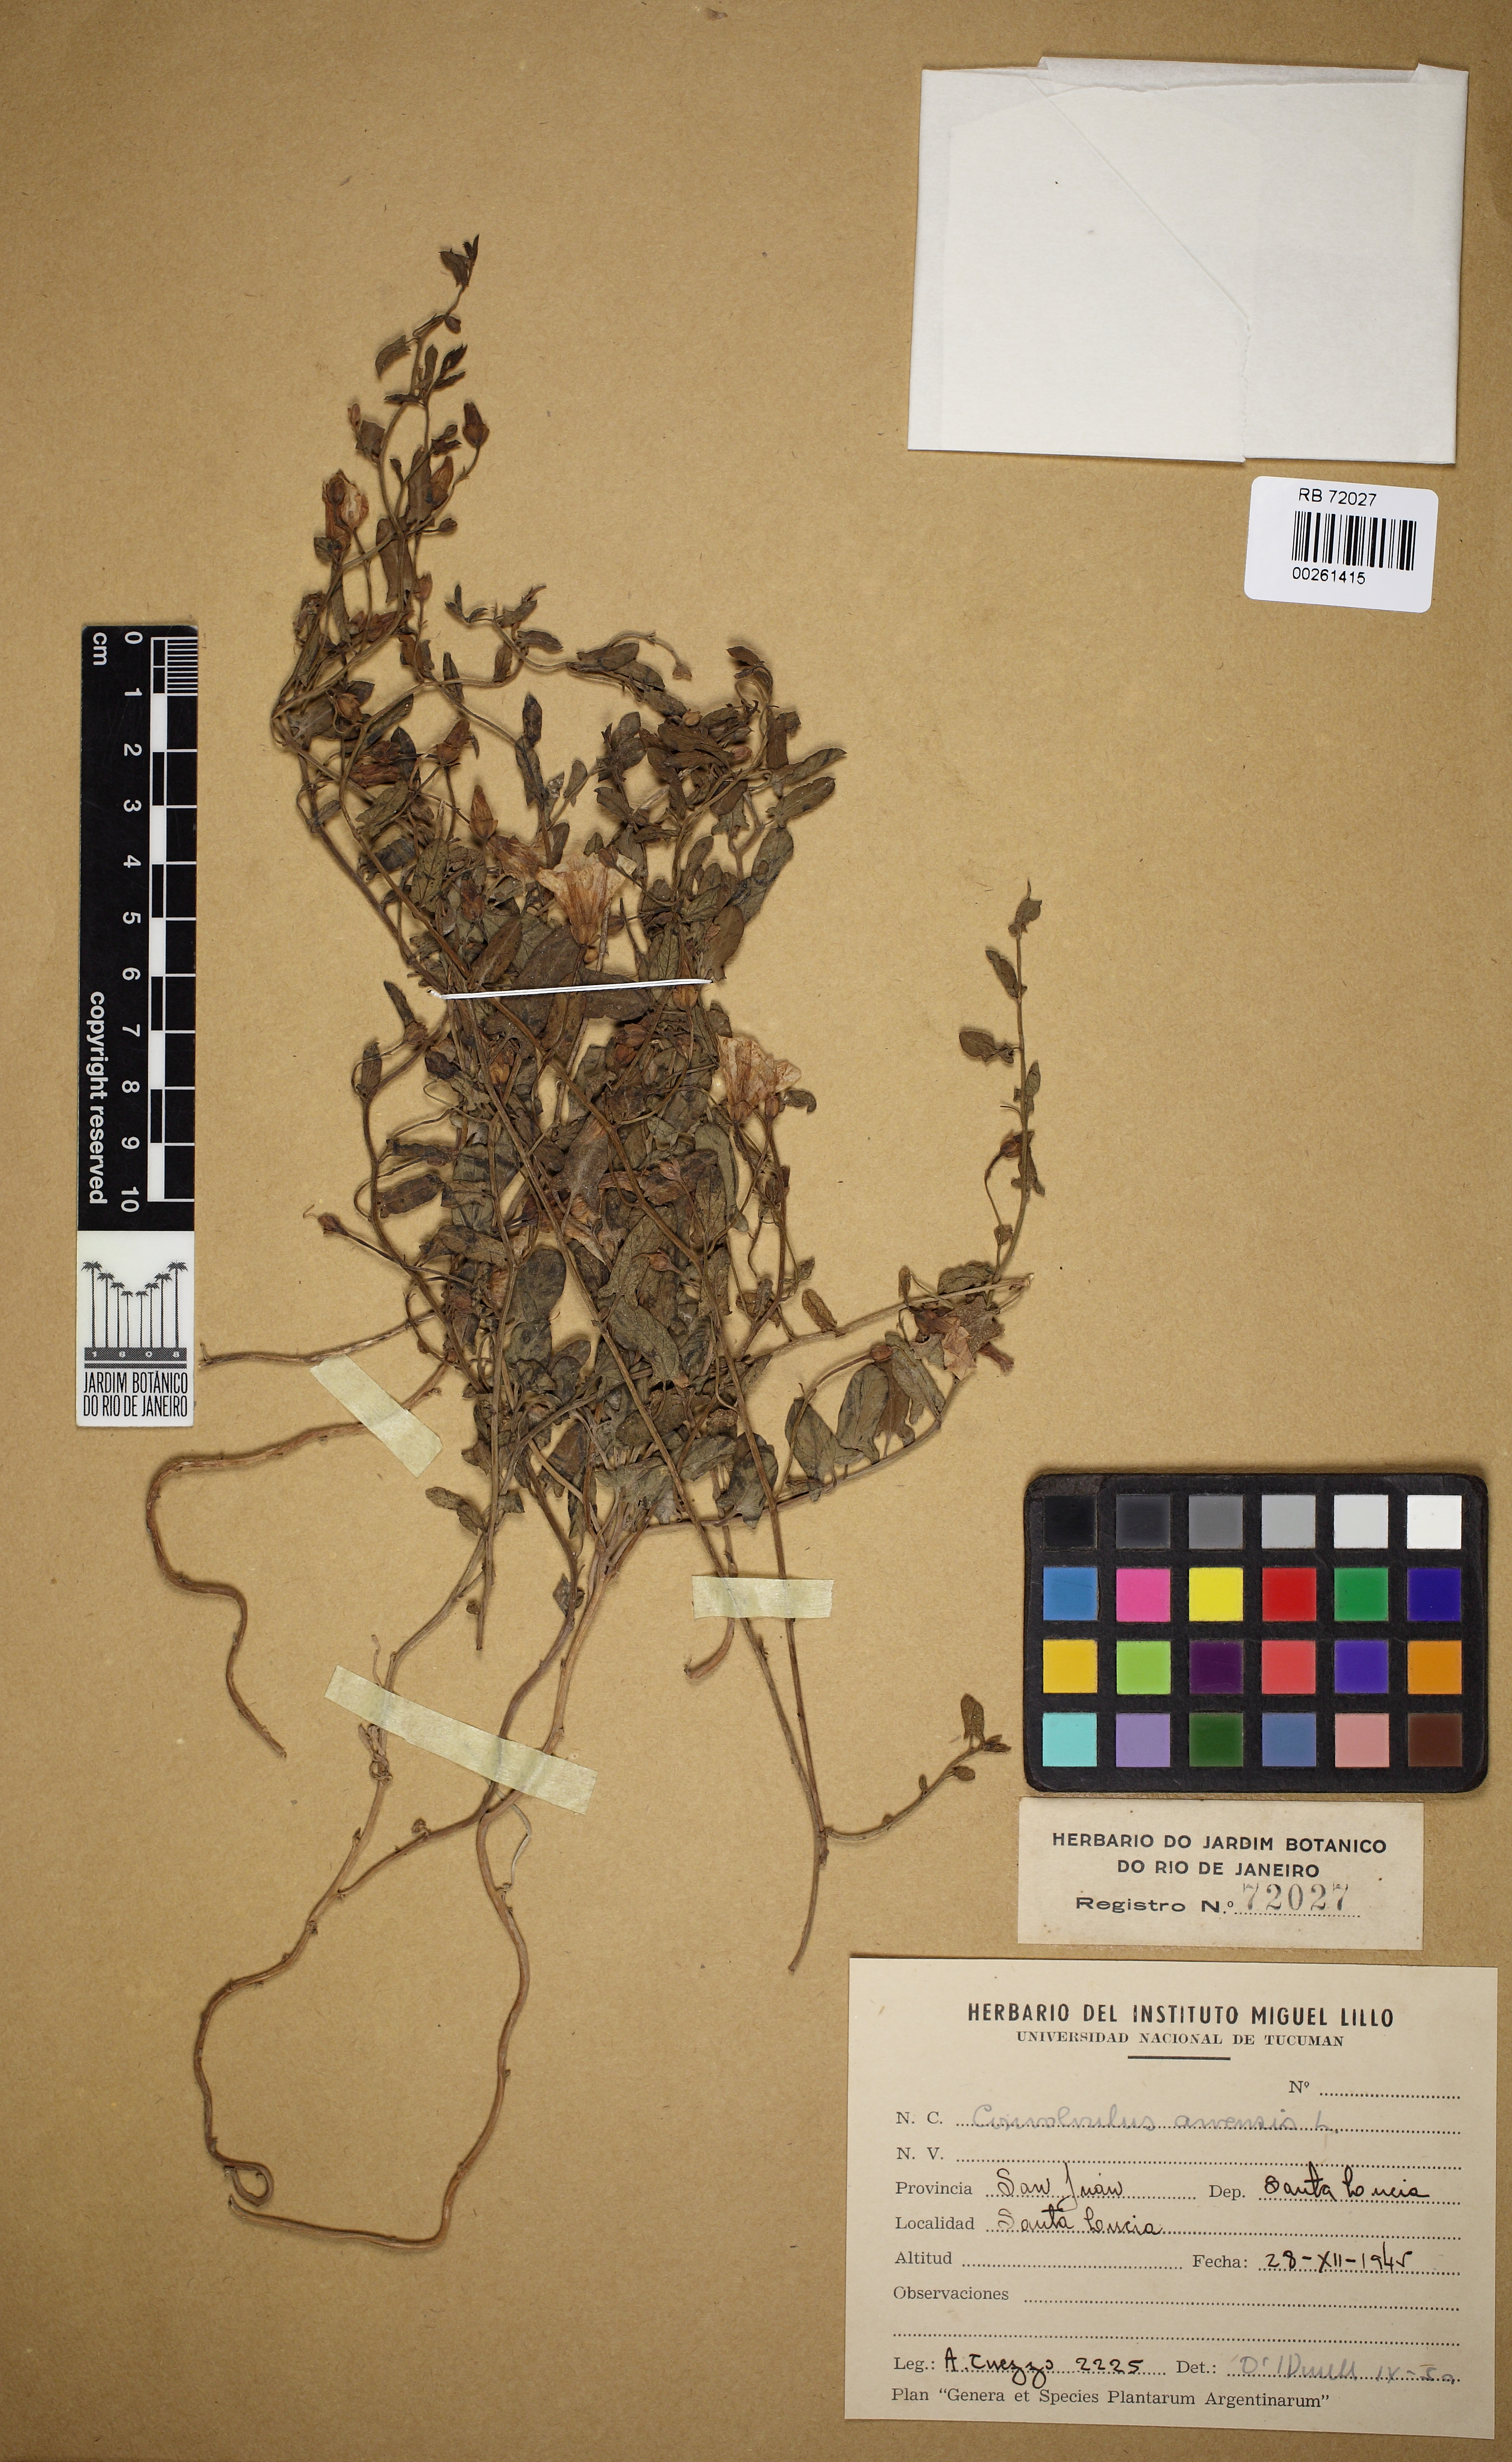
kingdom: Plantae
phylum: Tracheophyta
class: Magnoliopsida
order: Solanales
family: Convolvulaceae
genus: Convolvulus
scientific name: Convolvulus arvensis
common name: Field bindweed
